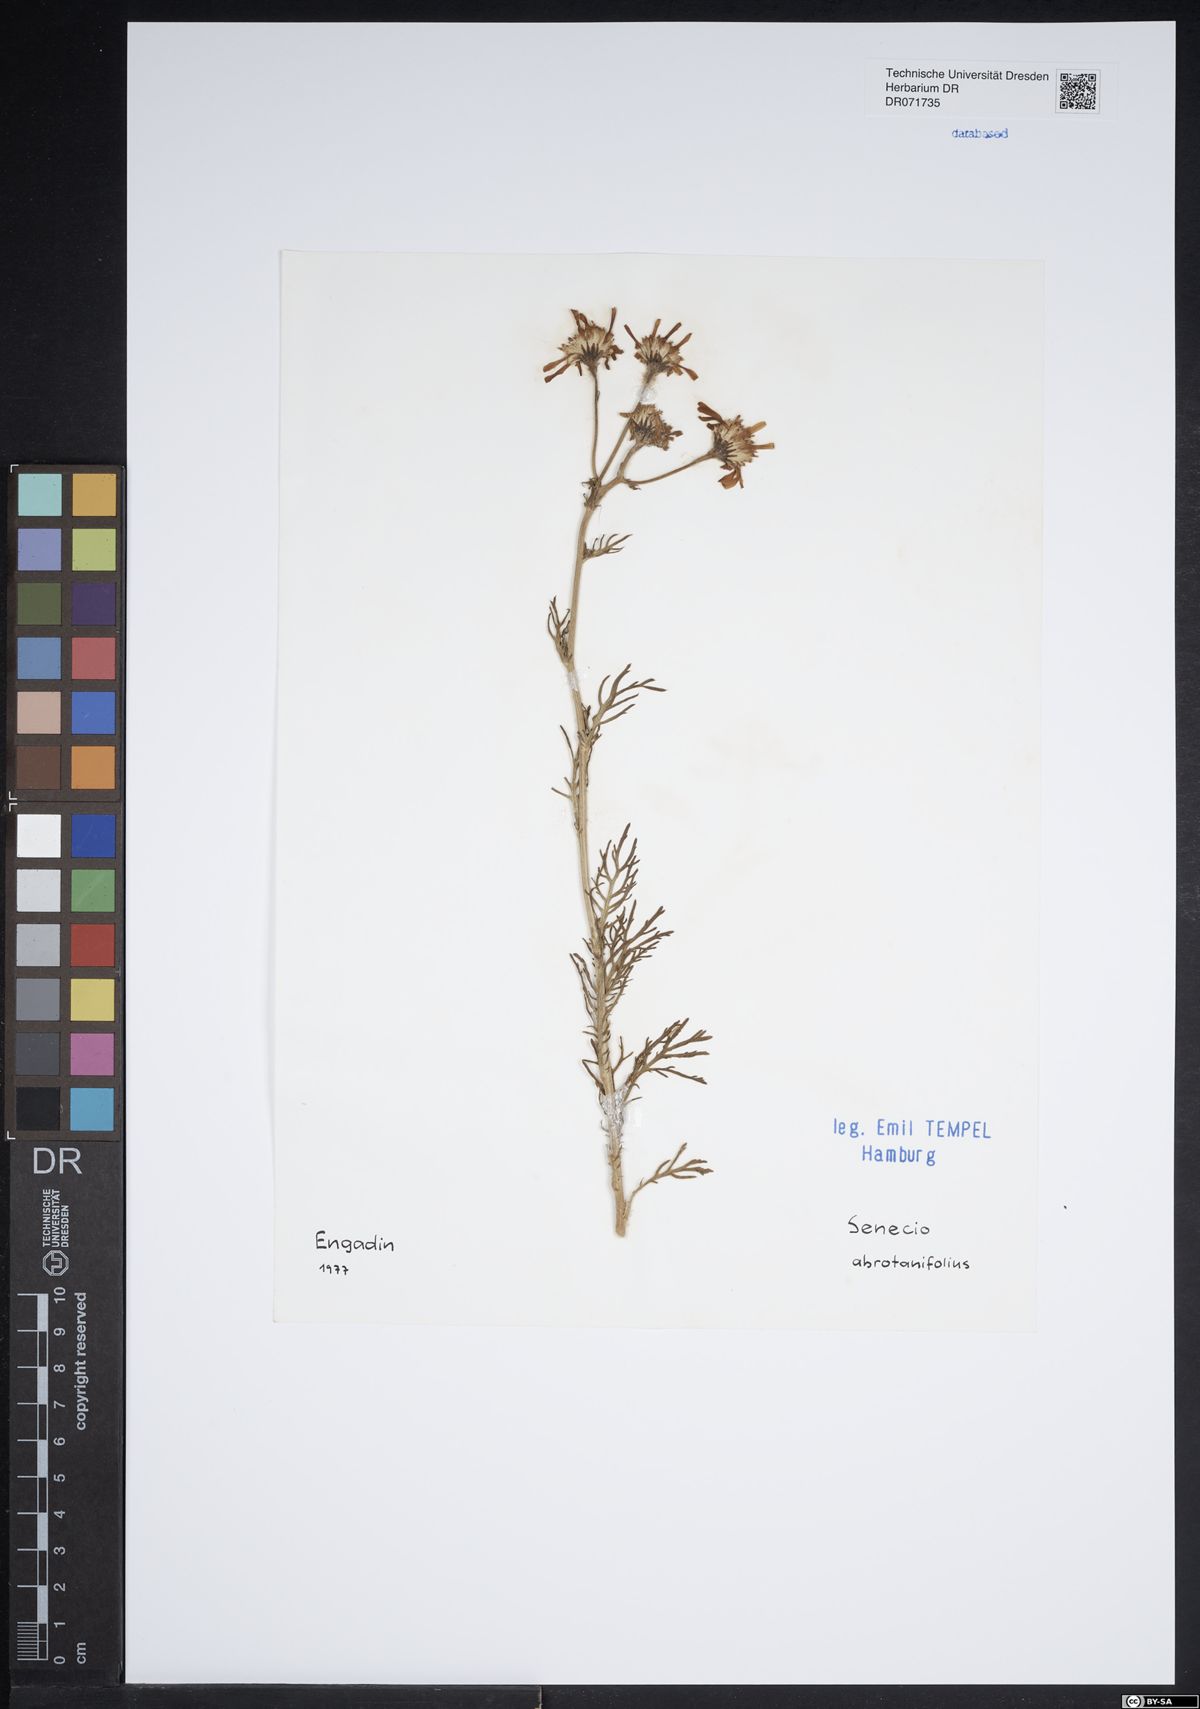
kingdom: Plantae
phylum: Tracheophyta
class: Magnoliopsida
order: Asterales
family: Asteraceae
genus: Jacobaea
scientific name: Jacobaea abrotanifolia
